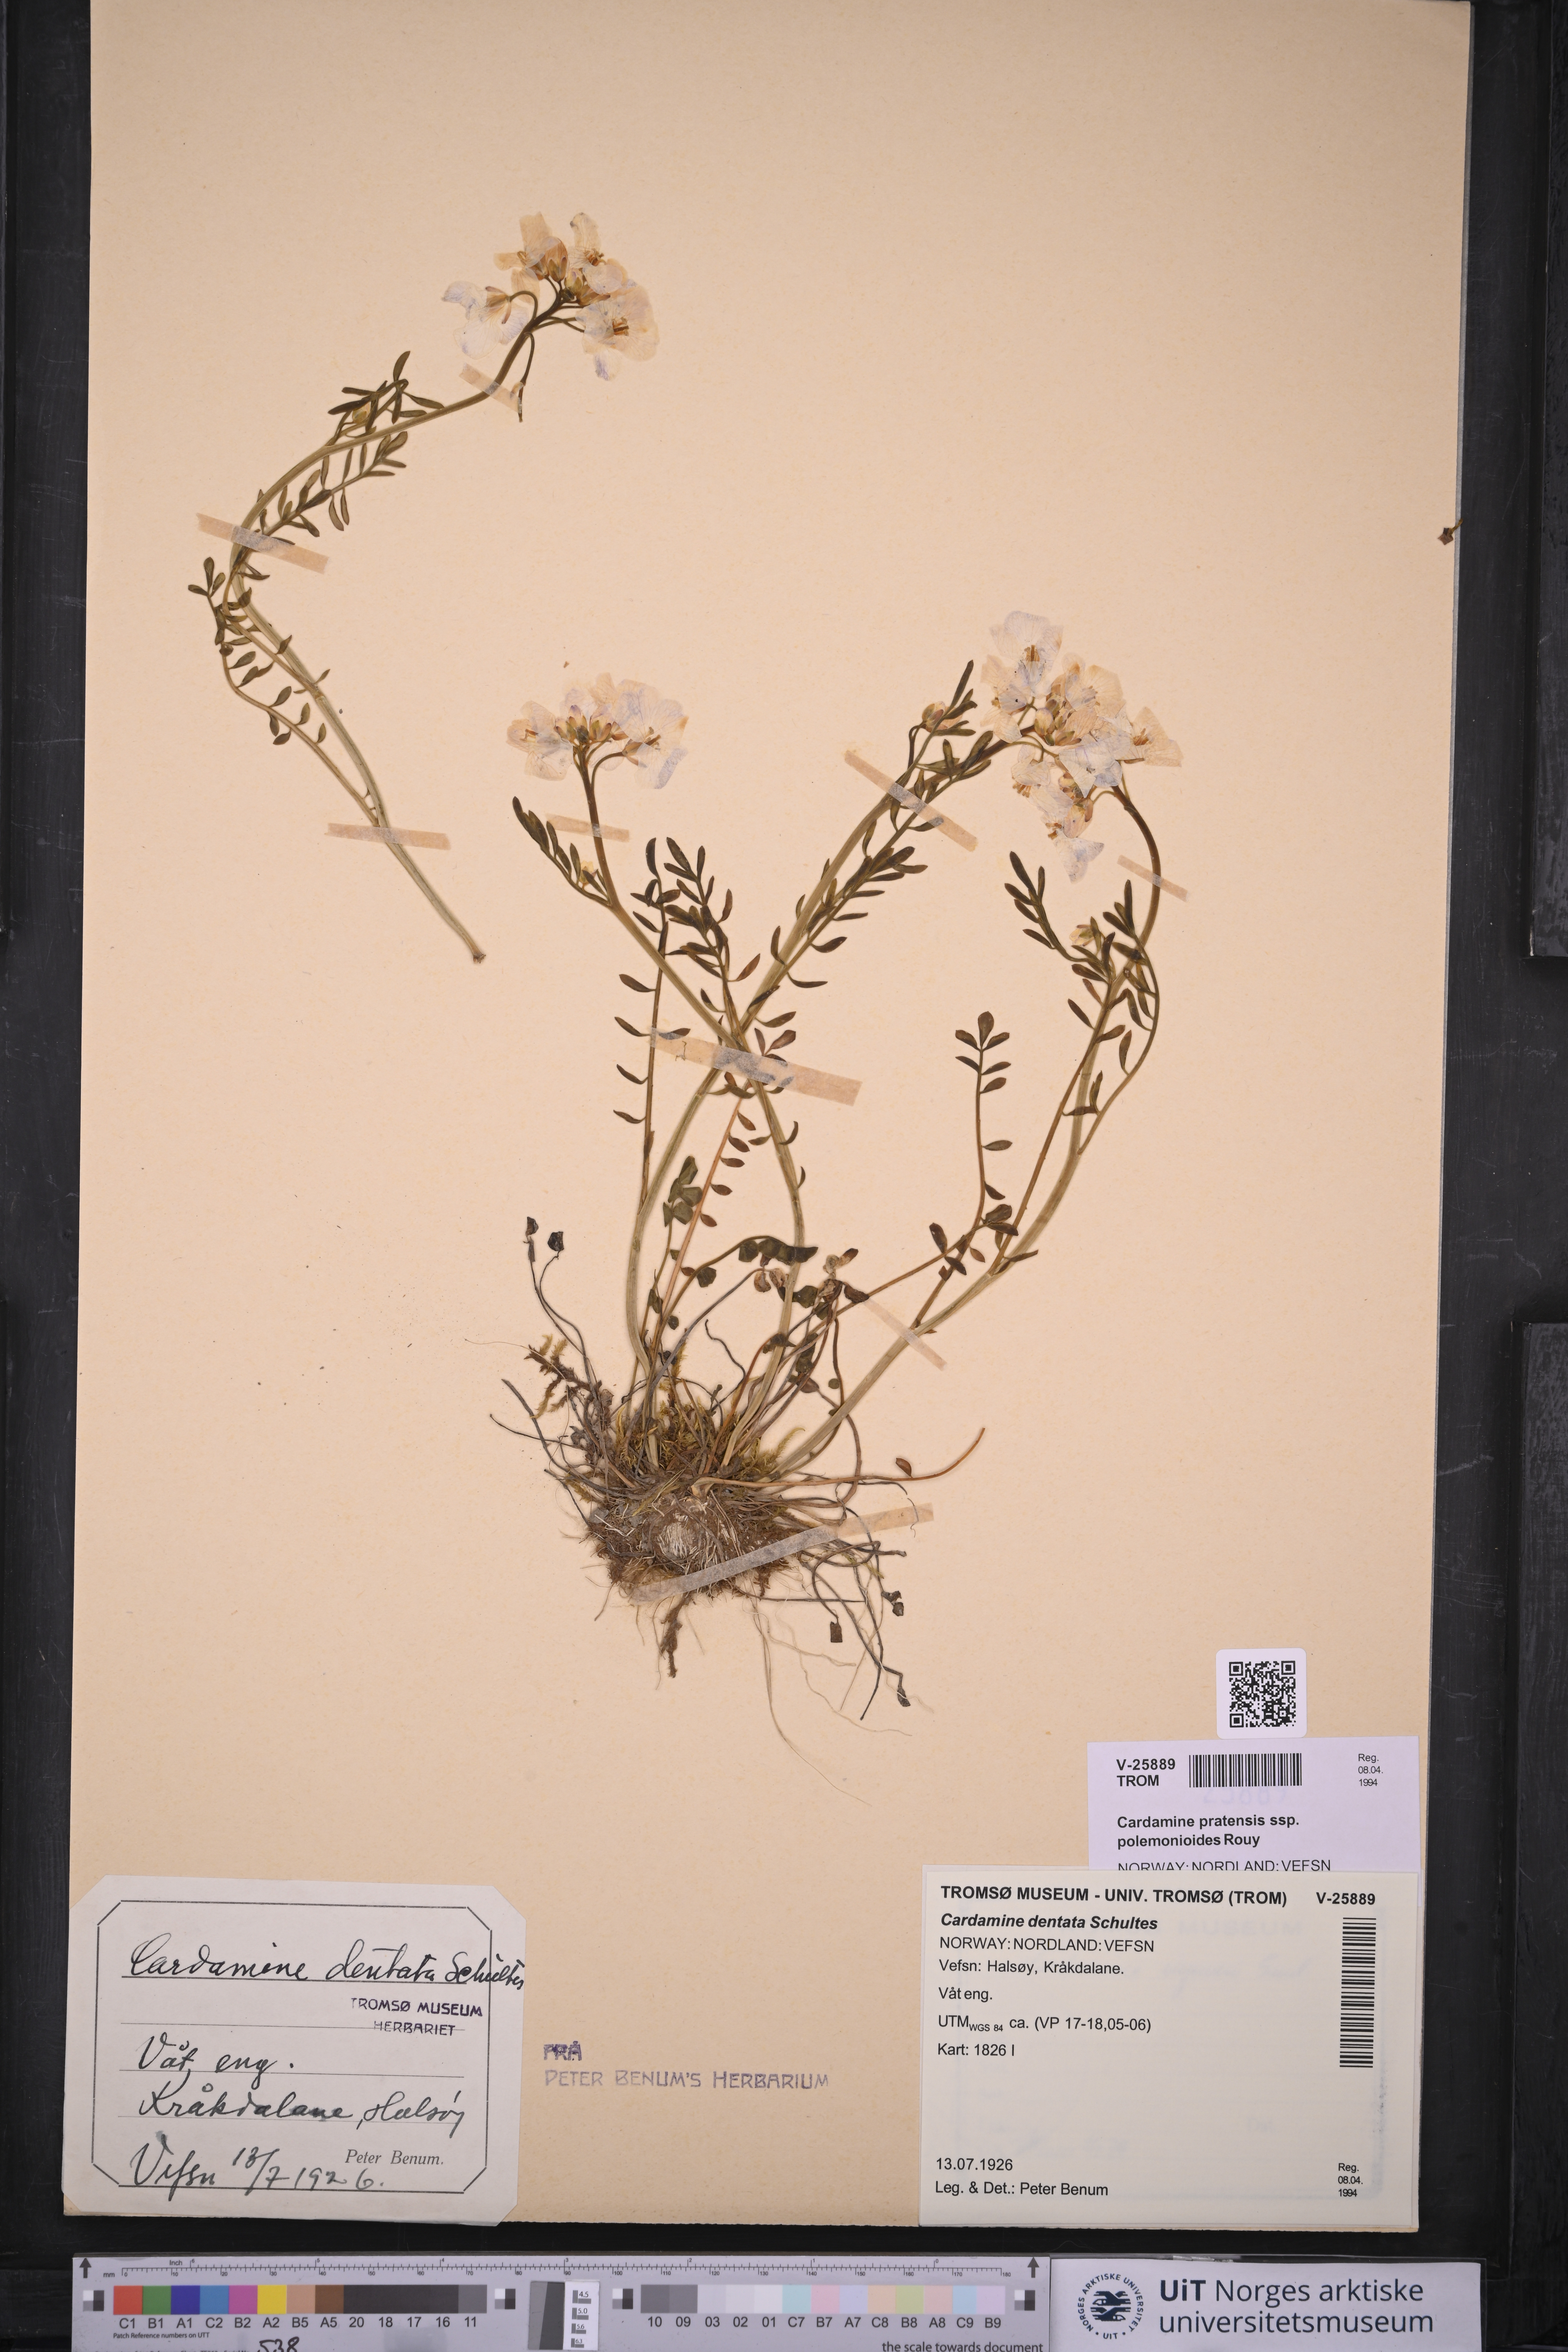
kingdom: Plantae
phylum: Tracheophyta
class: Magnoliopsida
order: Brassicales
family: Brassicaceae
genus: Cardamine
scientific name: Cardamine nymanii
